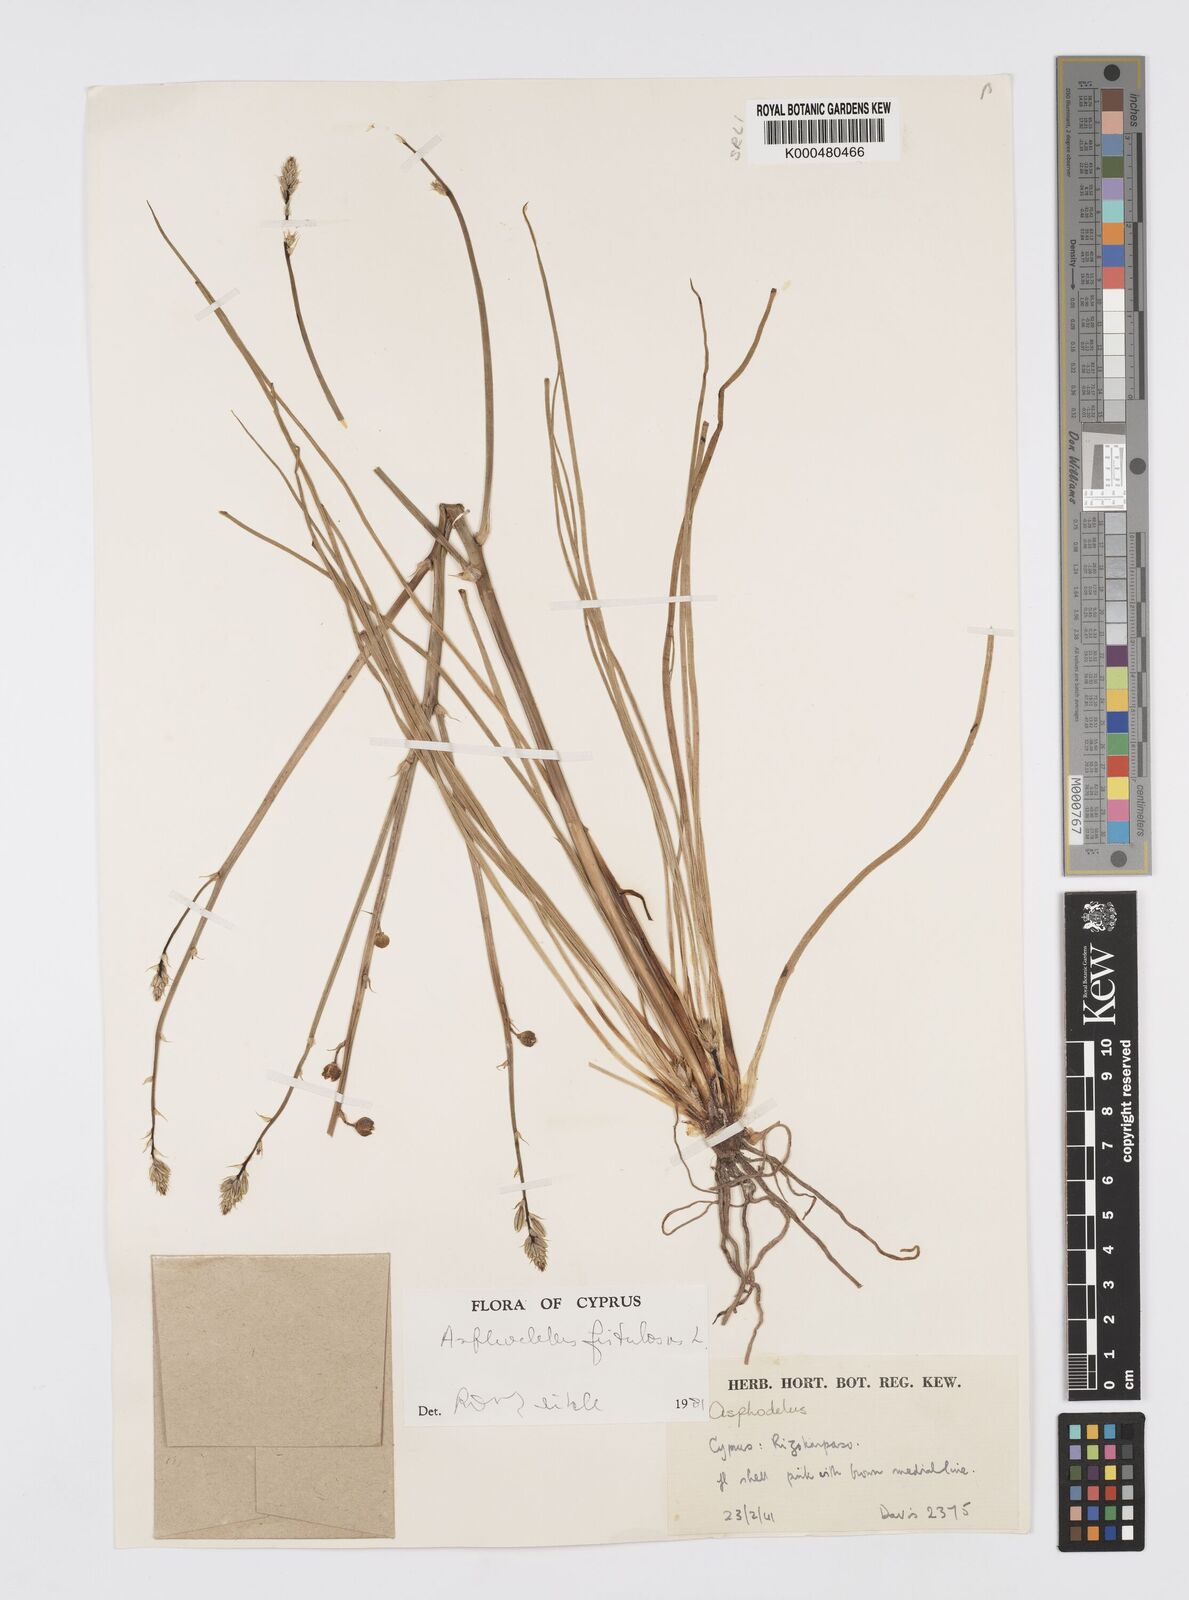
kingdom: Plantae
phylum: Tracheophyta
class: Liliopsida
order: Asparagales
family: Asphodelaceae
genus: Asphodelus
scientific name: Asphodelus fistulosus
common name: Onionweed
